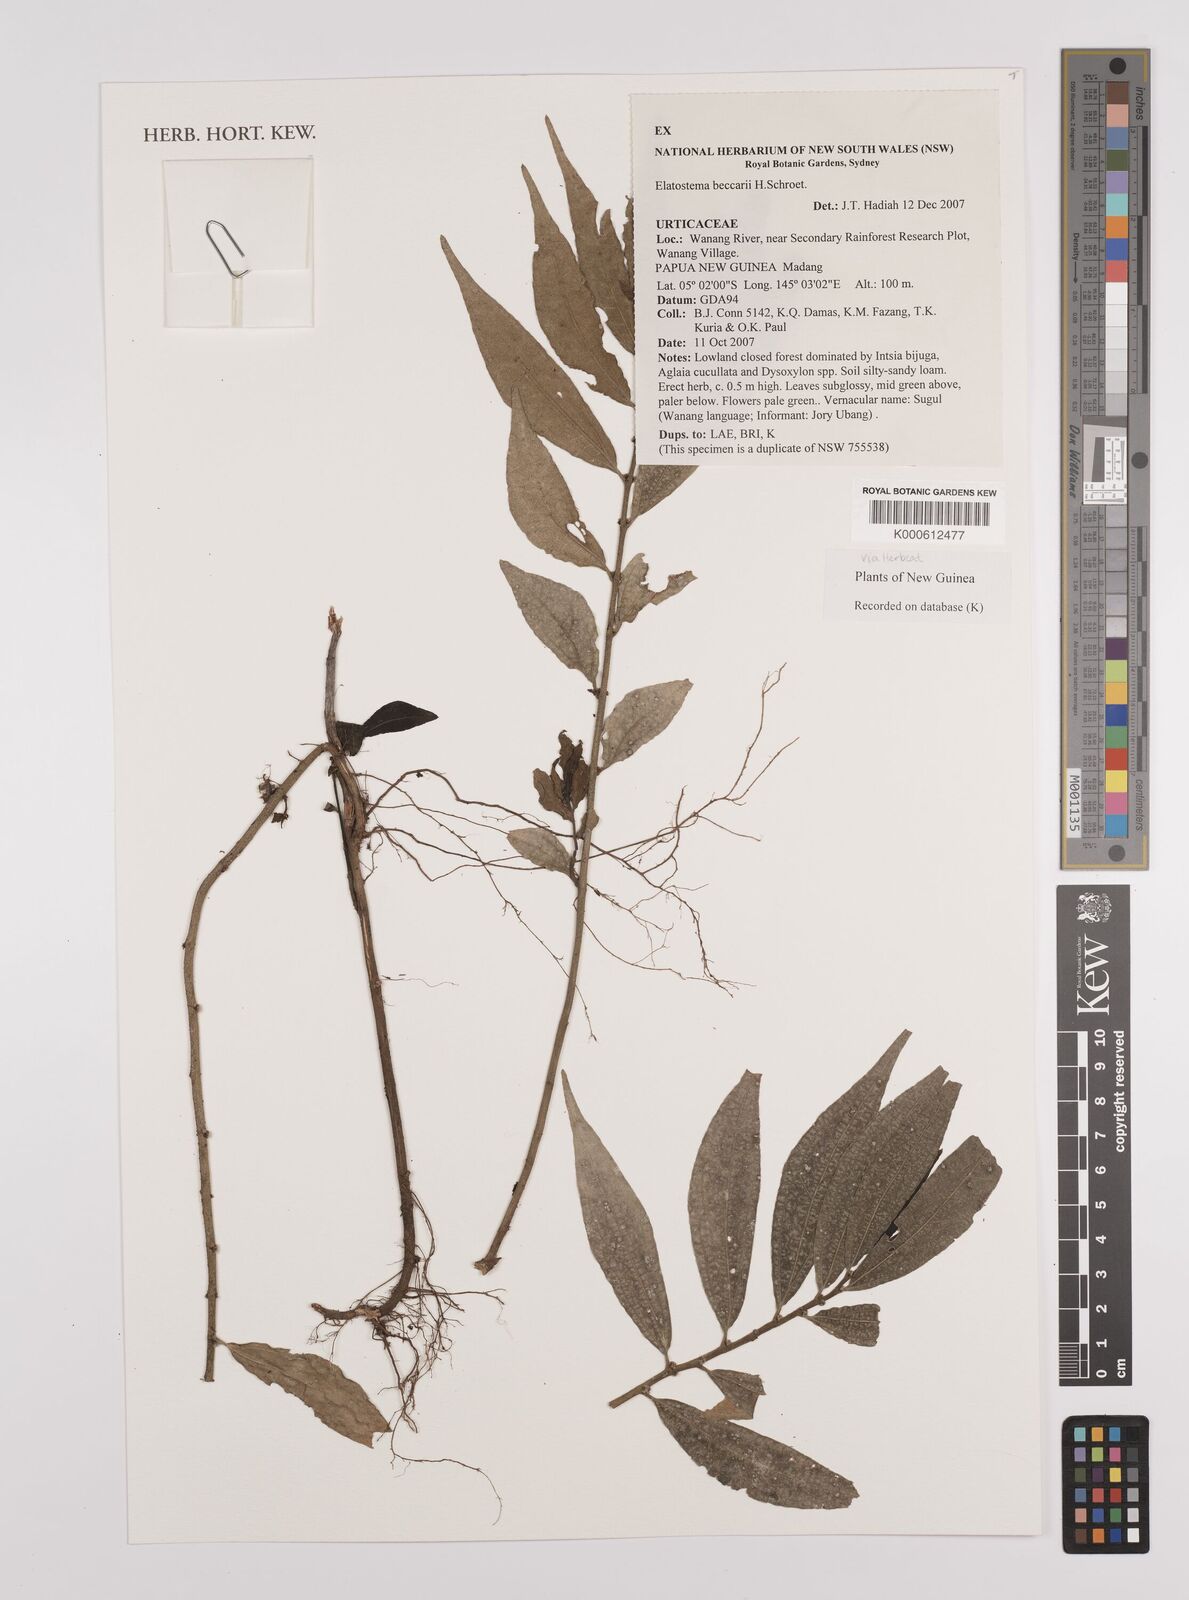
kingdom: Plantae
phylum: Tracheophyta
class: Magnoliopsida
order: Rosales
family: Urticaceae
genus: Elatostema
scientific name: Elatostema beccarii
